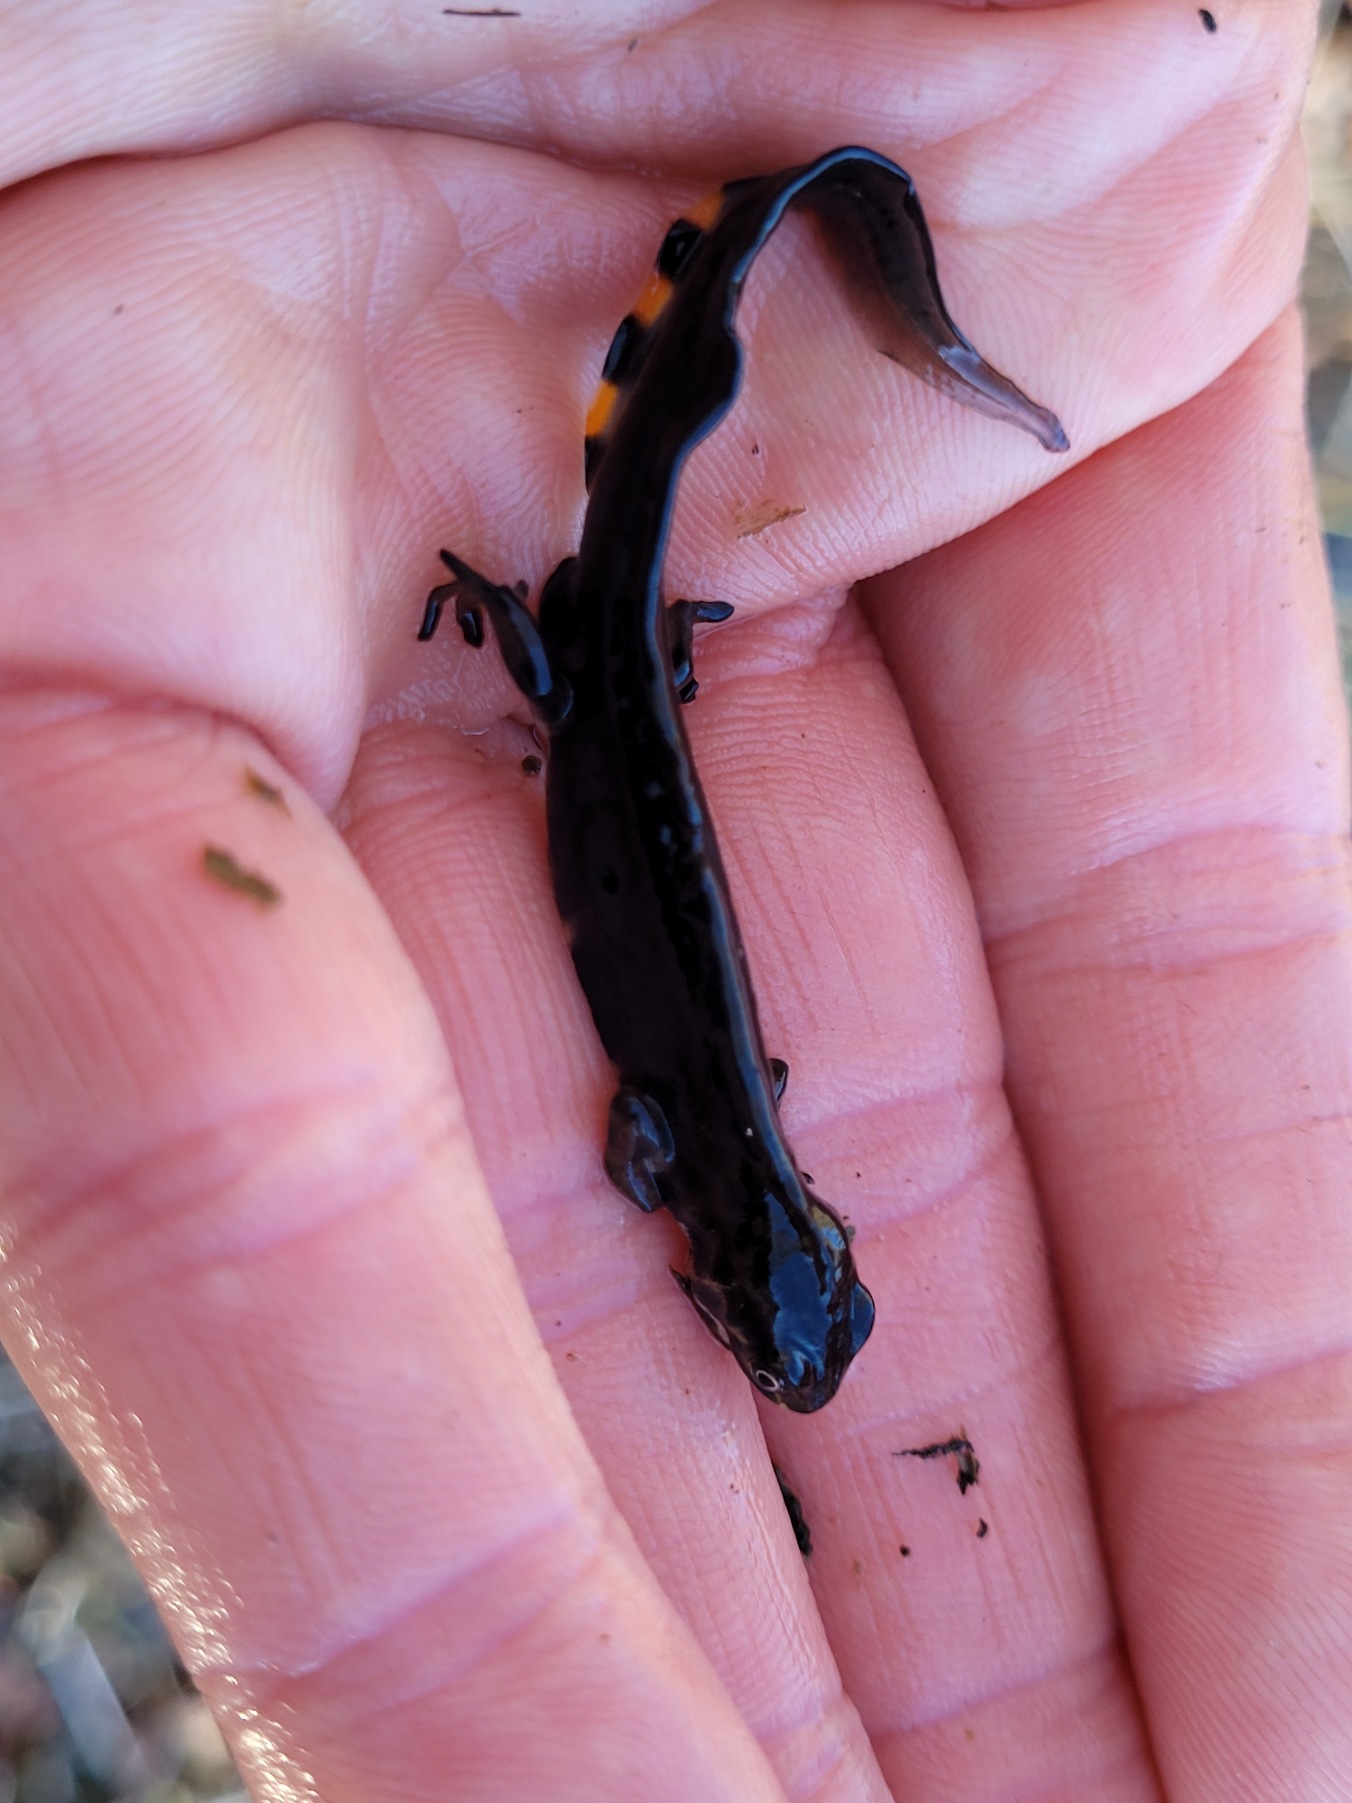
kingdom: Animalia
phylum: Chordata
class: Amphibia
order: Caudata
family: Salamandridae
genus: Lissotriton
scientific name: Lissotriton vulgaris
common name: Lille vandsalamander
